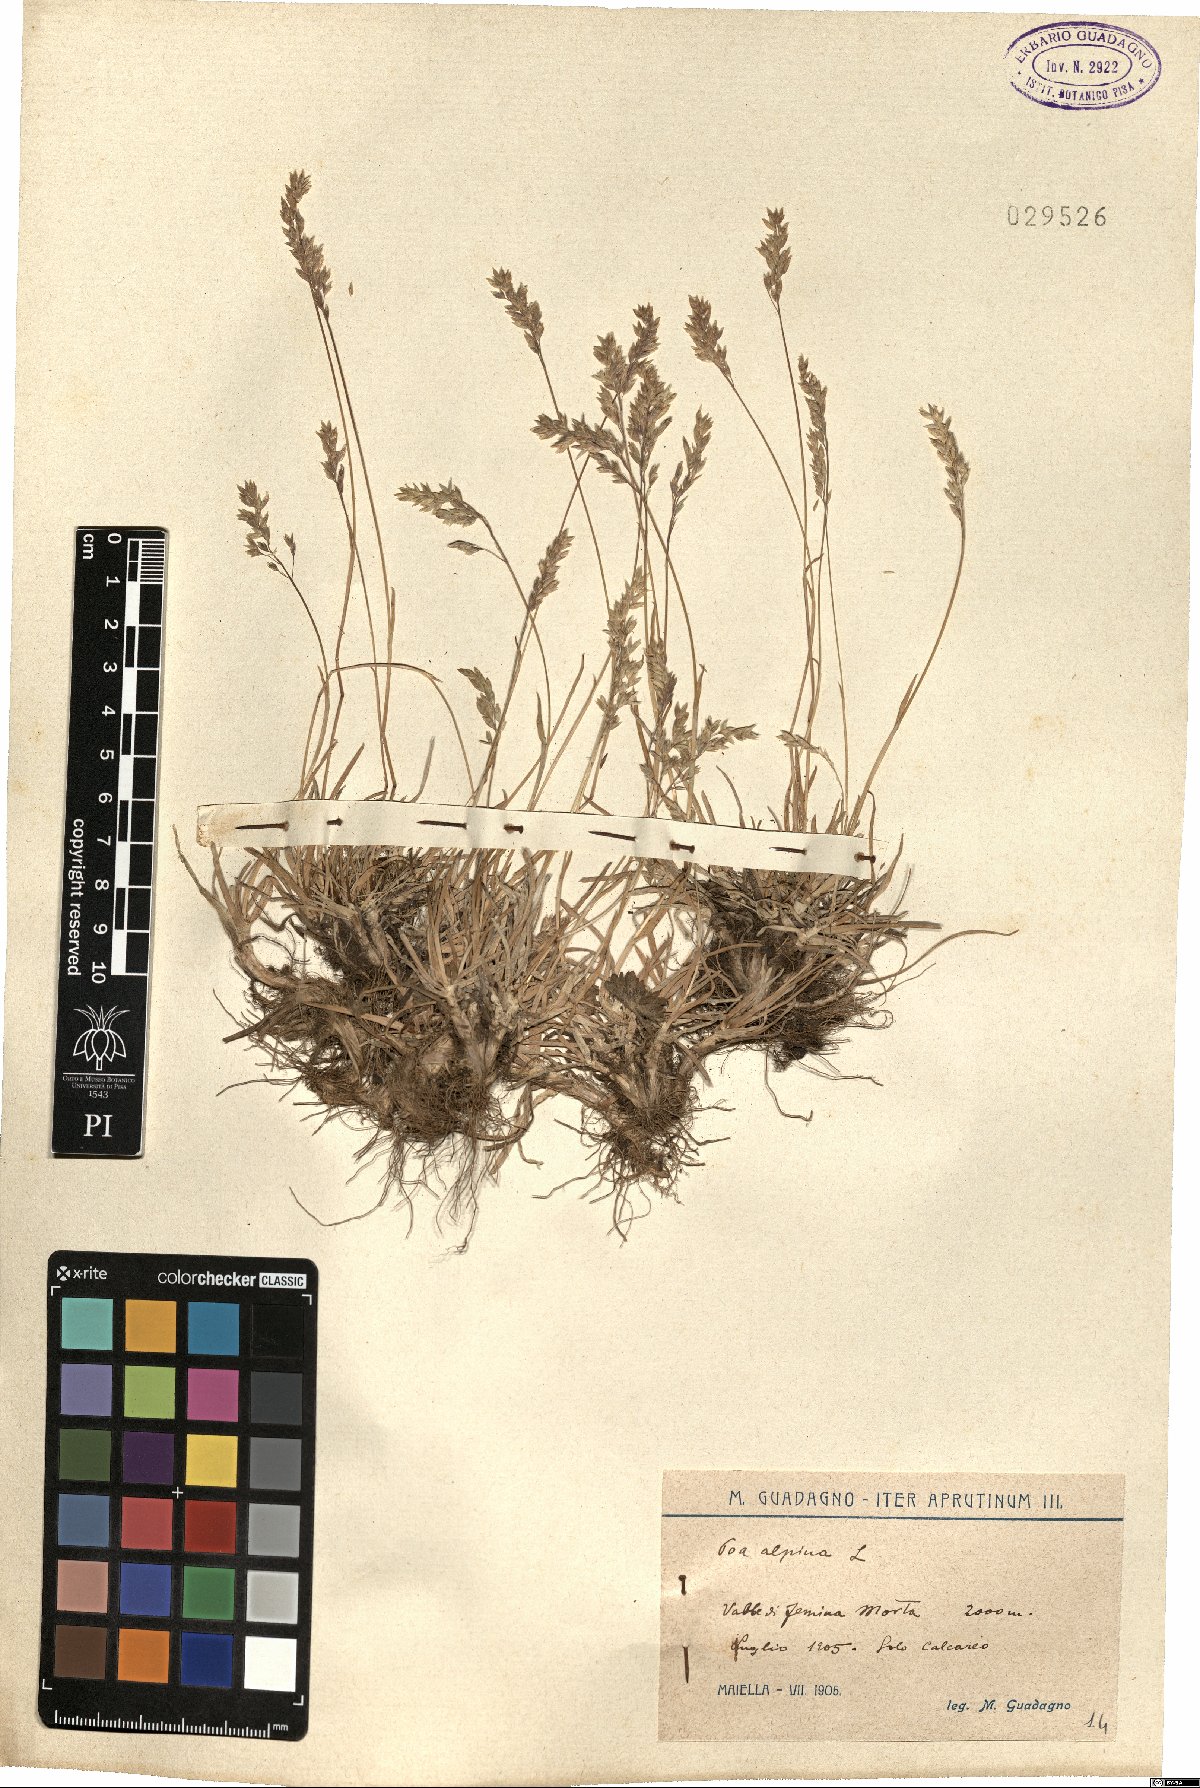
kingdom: Plantae
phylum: Tracheophyta
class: Liliopsida
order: Poales
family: Poaceae
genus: Poa
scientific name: Poa alpina
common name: Alpine bluegrass
